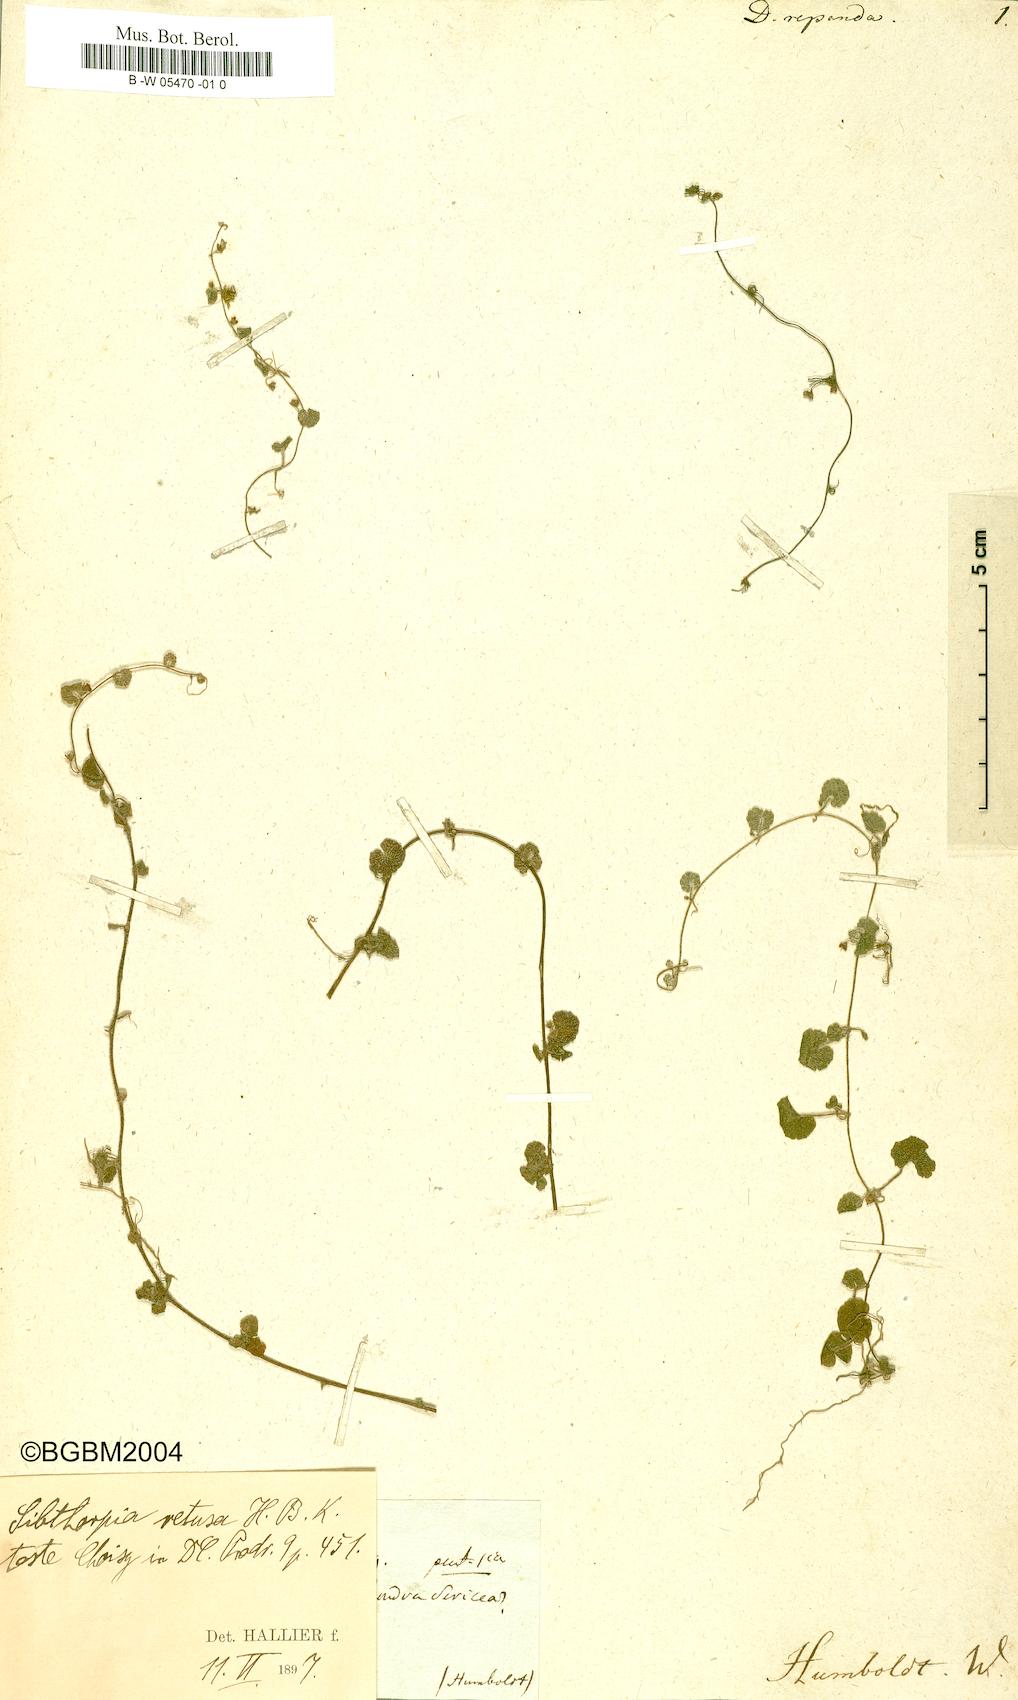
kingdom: Plantae
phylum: Tracheophyta
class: Magnoliopsida
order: Solanales
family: Convolvulaceae
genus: Dichondra
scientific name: Dichondra repanda
